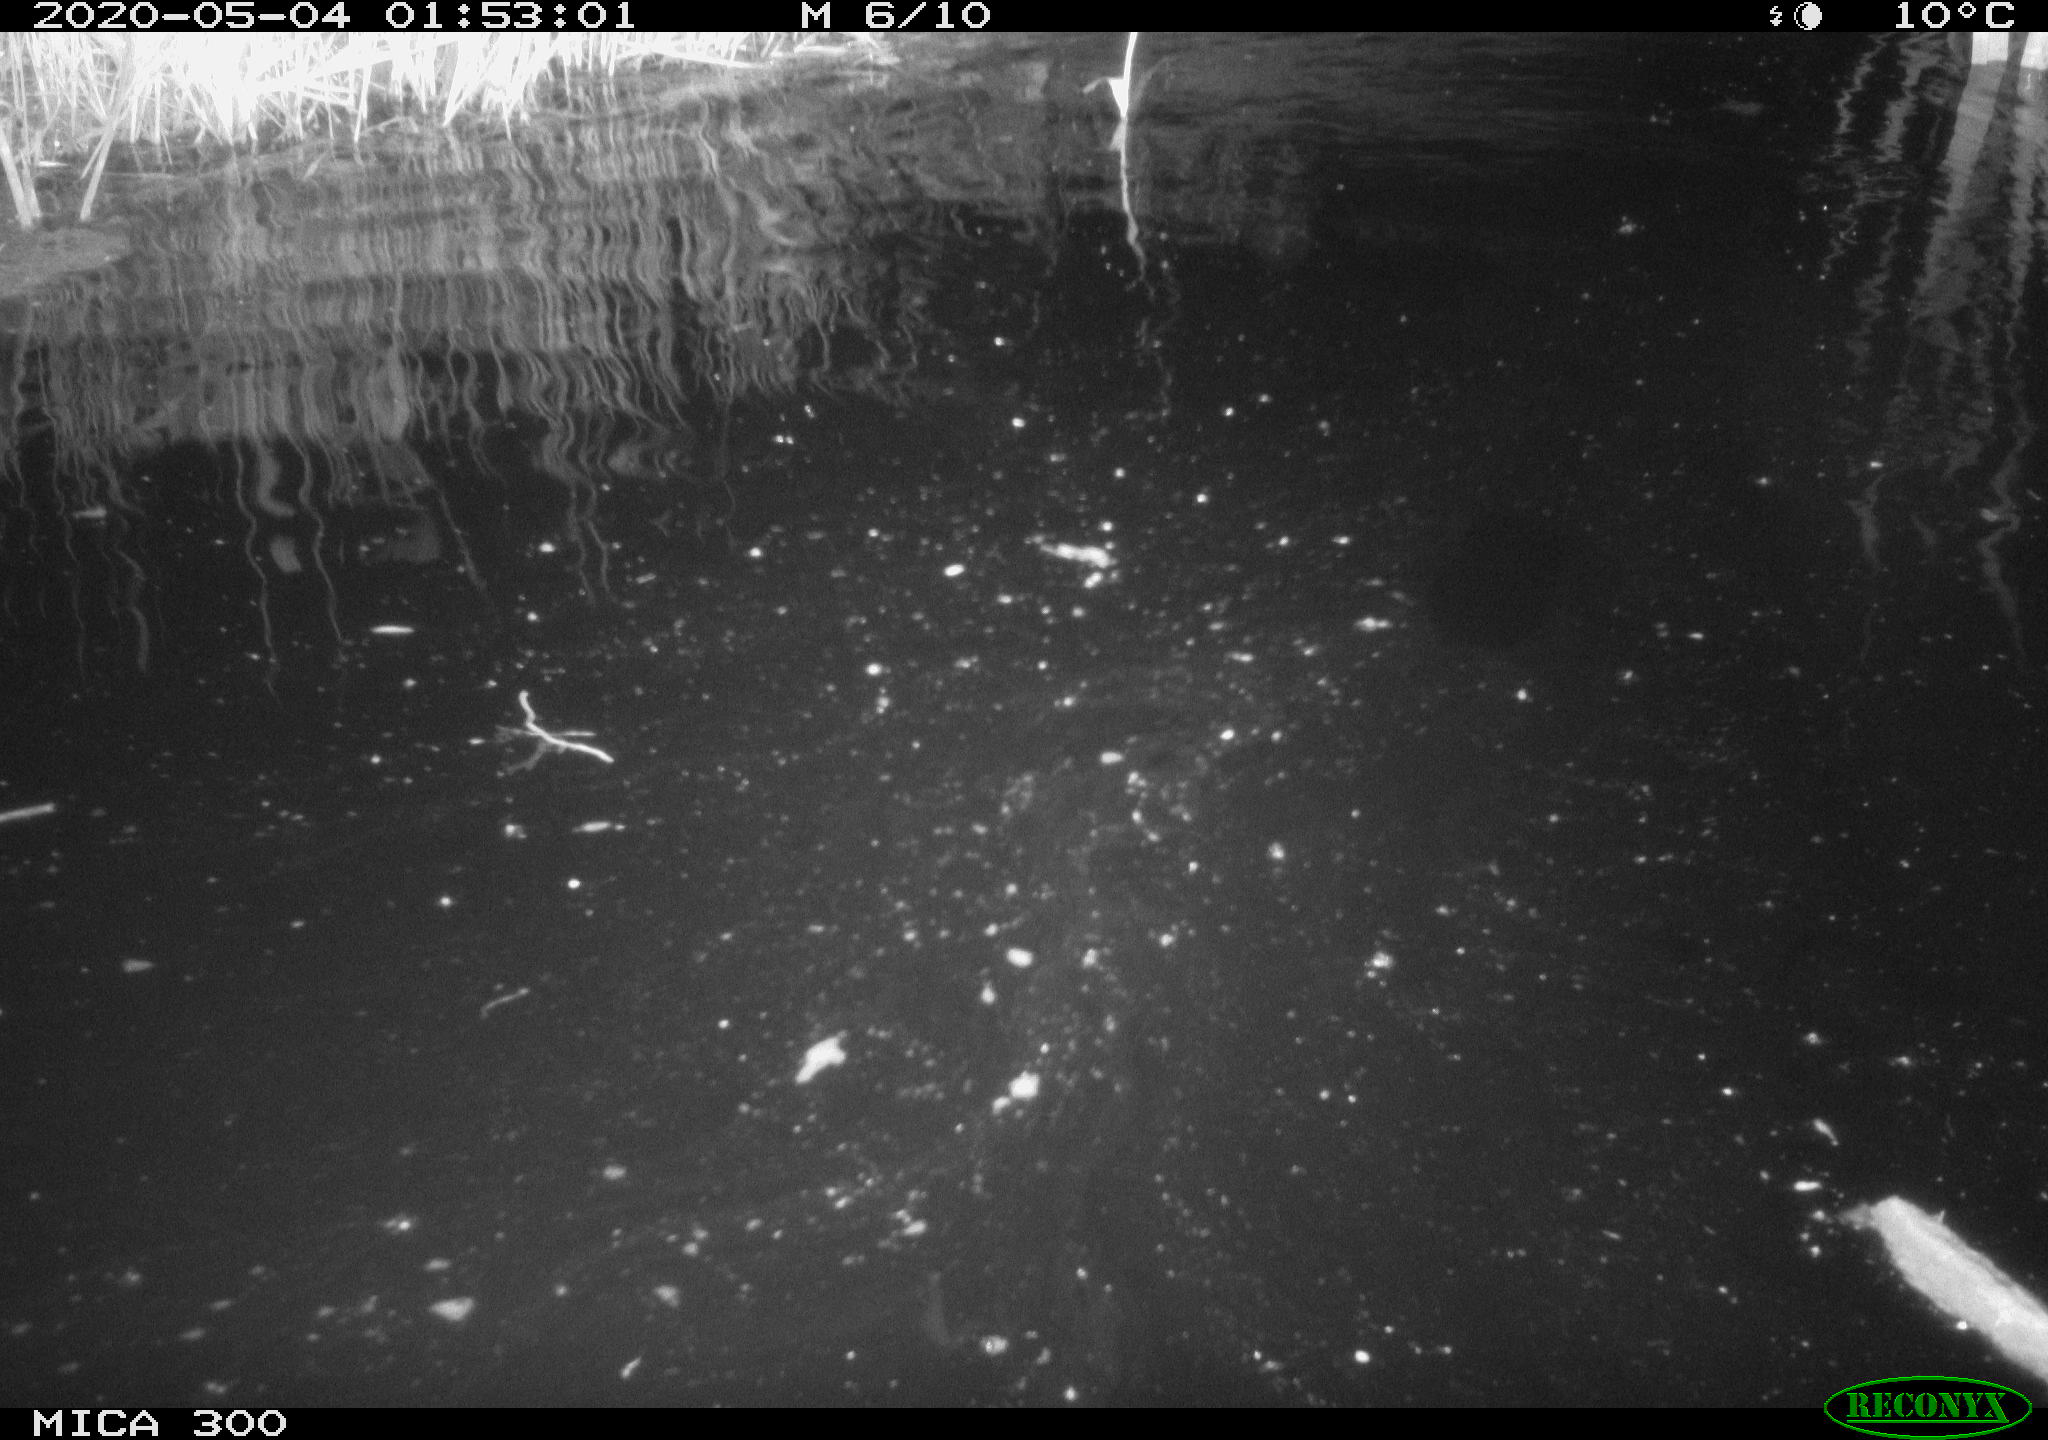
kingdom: Animalia
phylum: Chordata
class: Mammalia
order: Rodentia
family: Castoridae
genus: Castor
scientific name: Castor fiber
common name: Eurasian beaver
